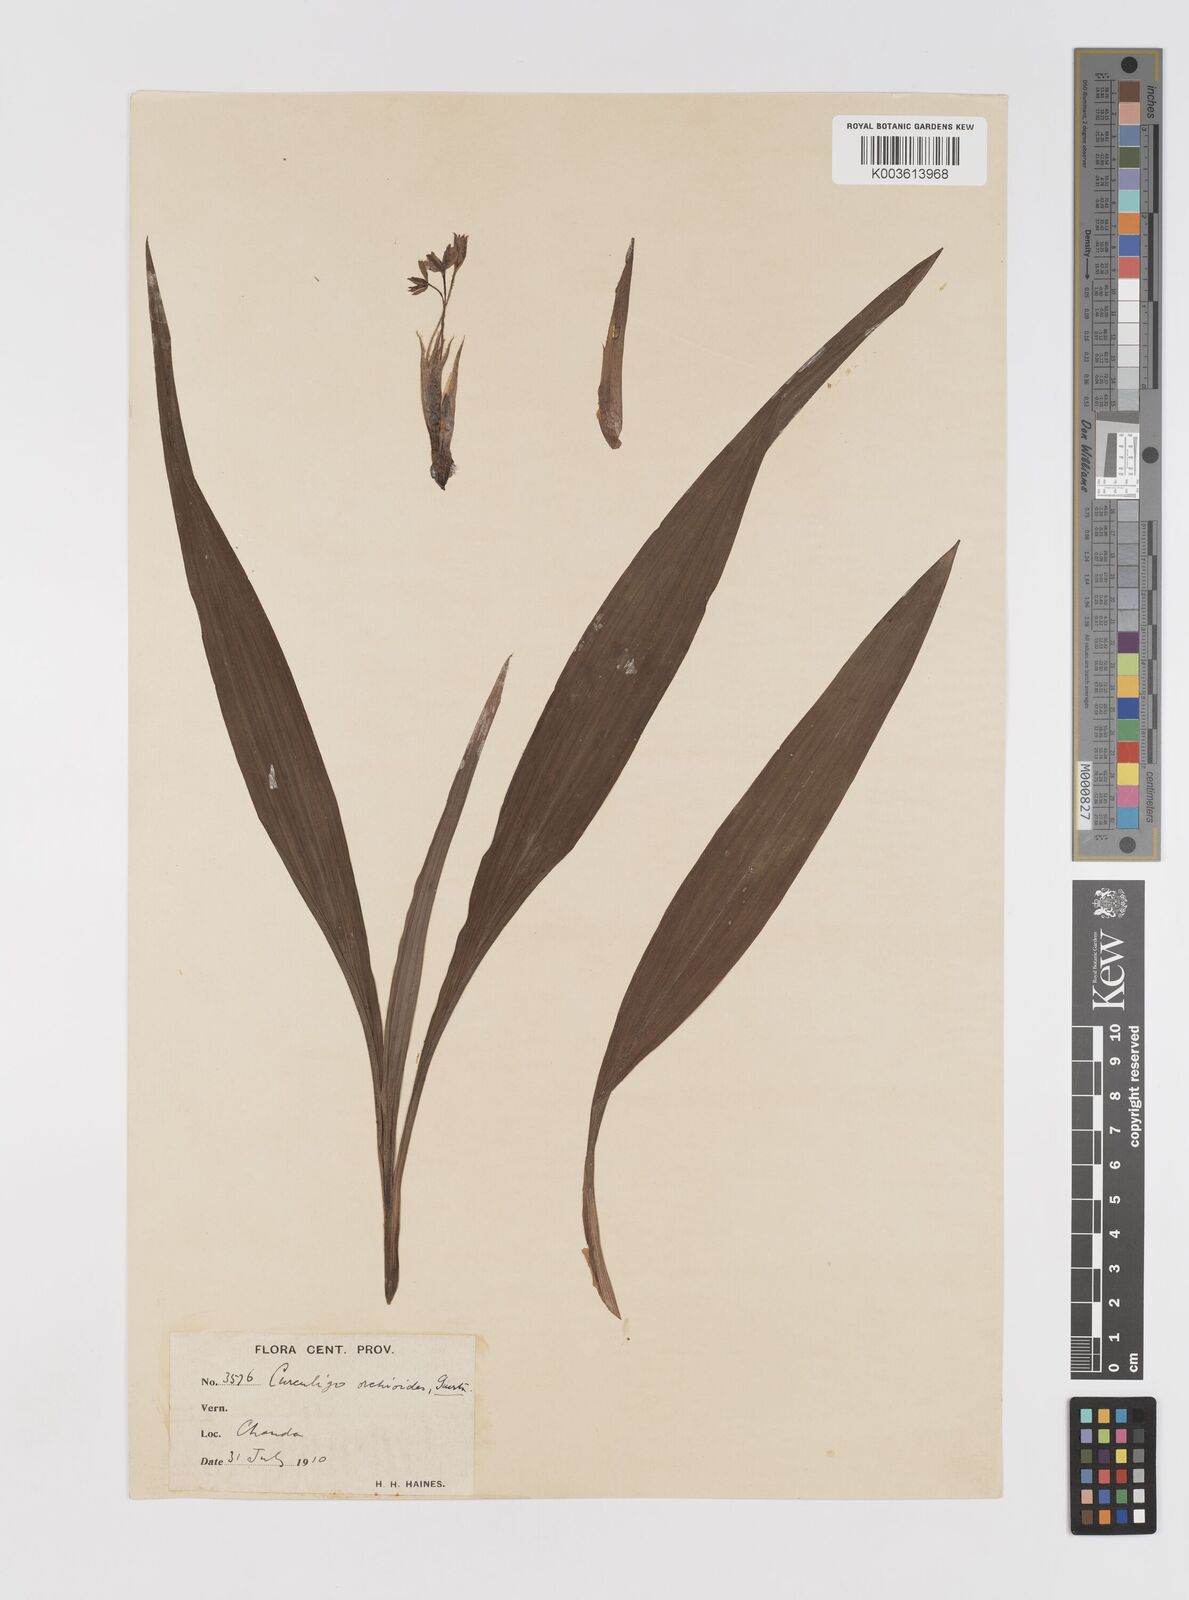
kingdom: Plantae
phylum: Tracheophyta
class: Liliopsida
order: Asparagales
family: Hypoxidaceae
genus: Curculigo
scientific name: Curculigo orchioides
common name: Golden eye-grass
